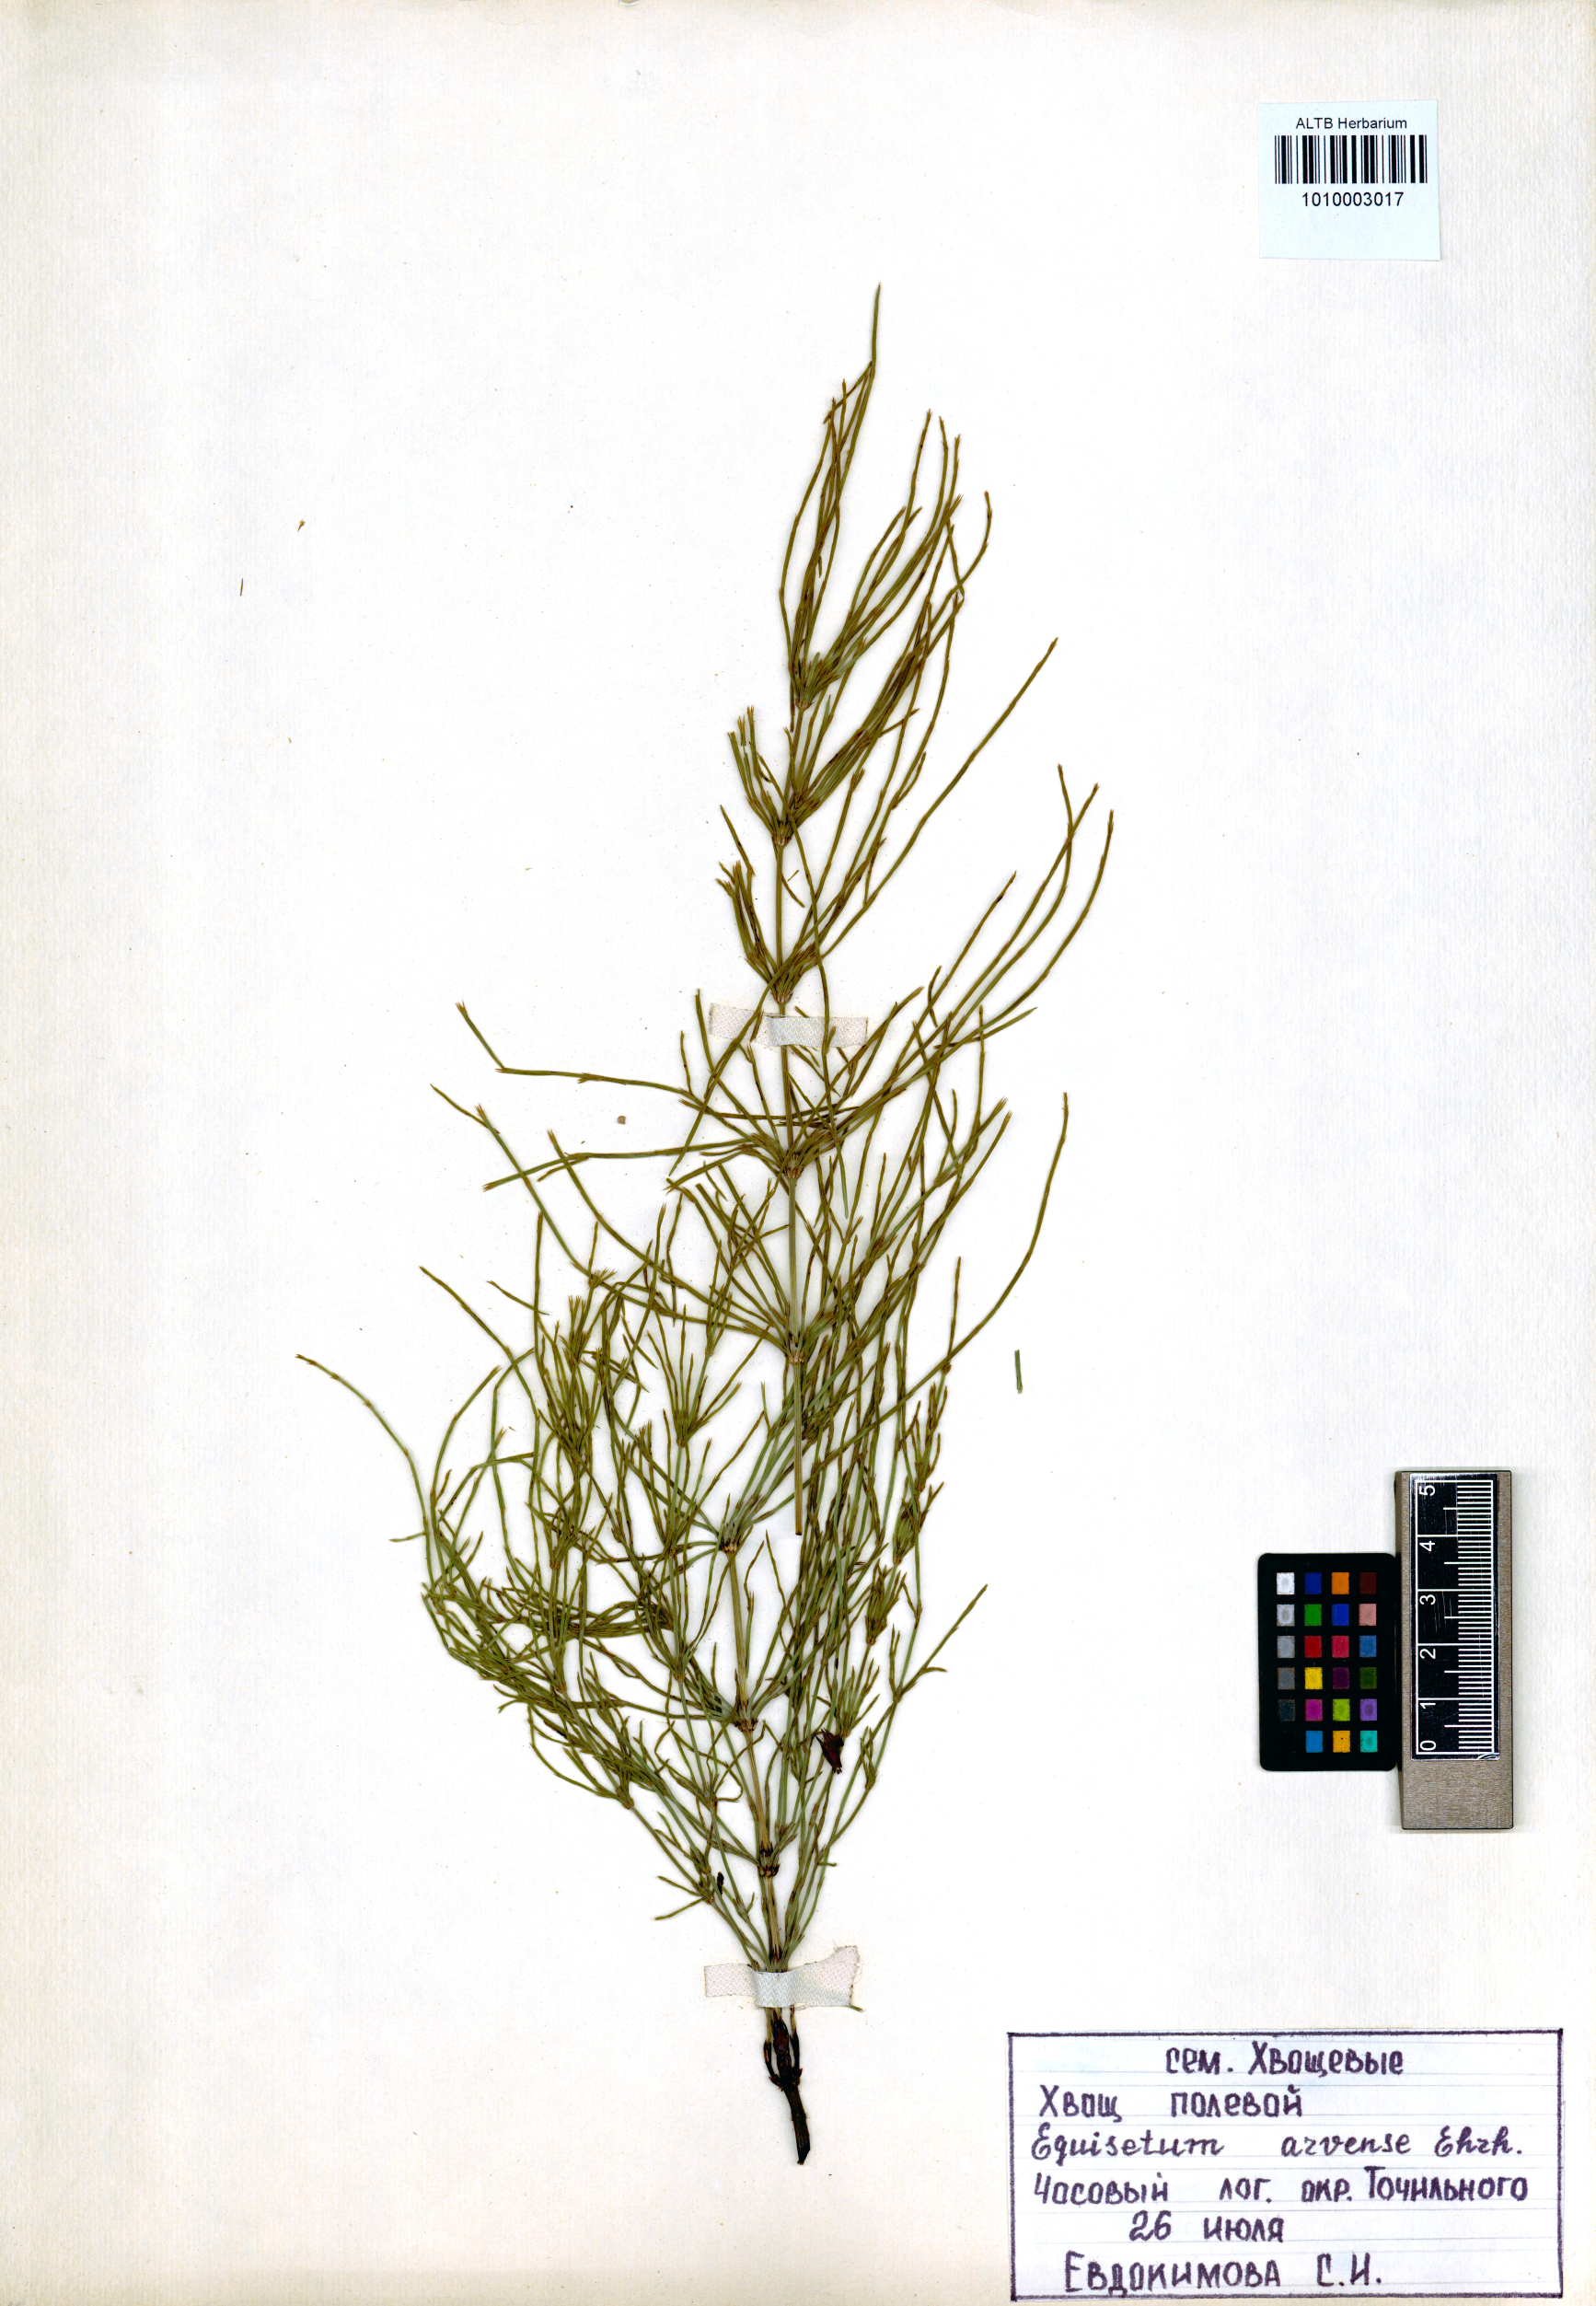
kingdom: Plantae
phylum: Tracheophyta
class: Polypodiopsida
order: Equisetales
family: Equisetaceae
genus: Equisetum
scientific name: Equisetum arvense
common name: Field horsetail
